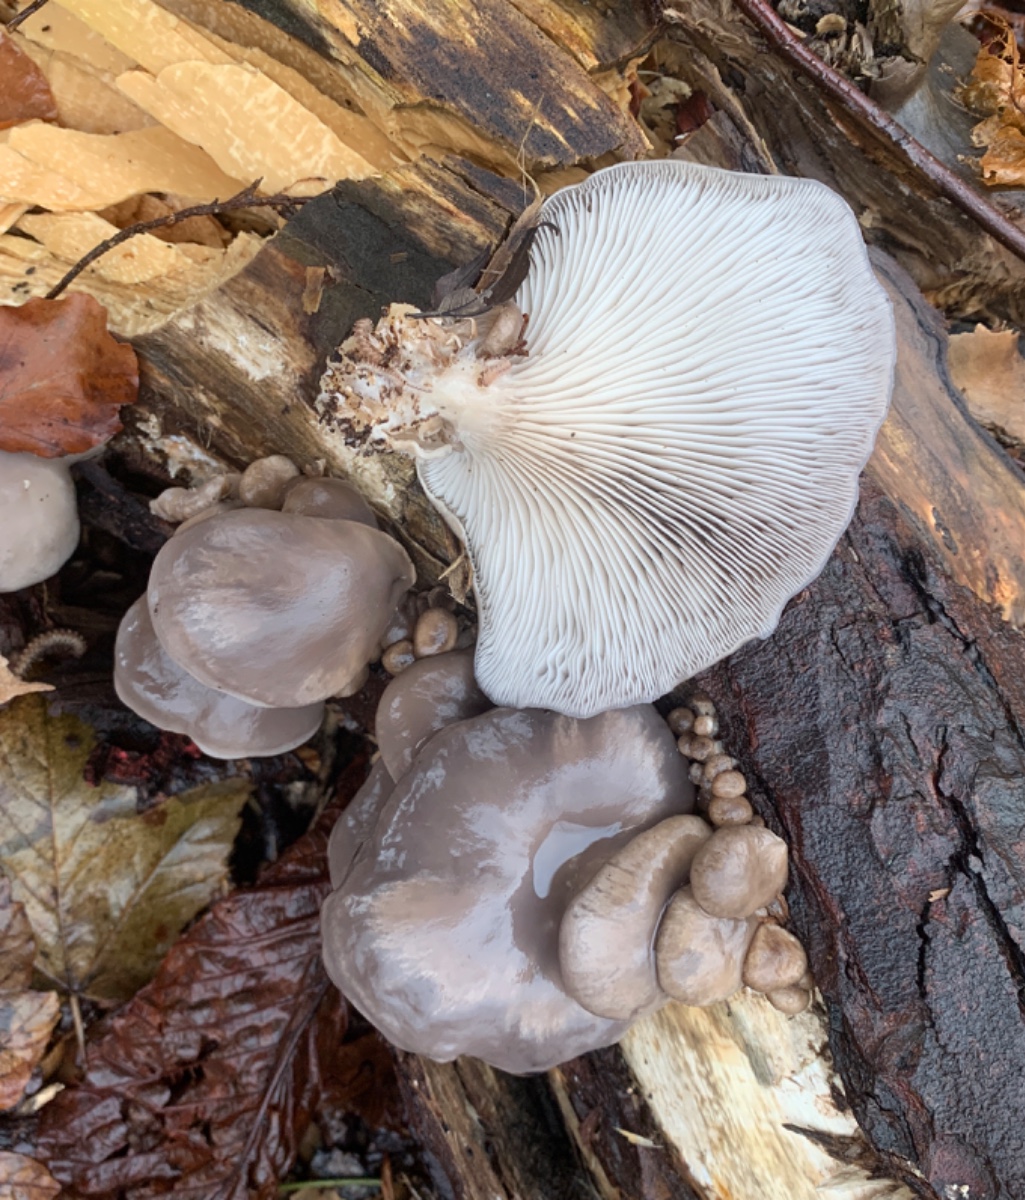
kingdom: Fungi
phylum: Basidiomycota
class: Agaricomycetes
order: Agaricales
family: Pleurotaceae
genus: Pleurotus
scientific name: Pleurotus ostreatus
